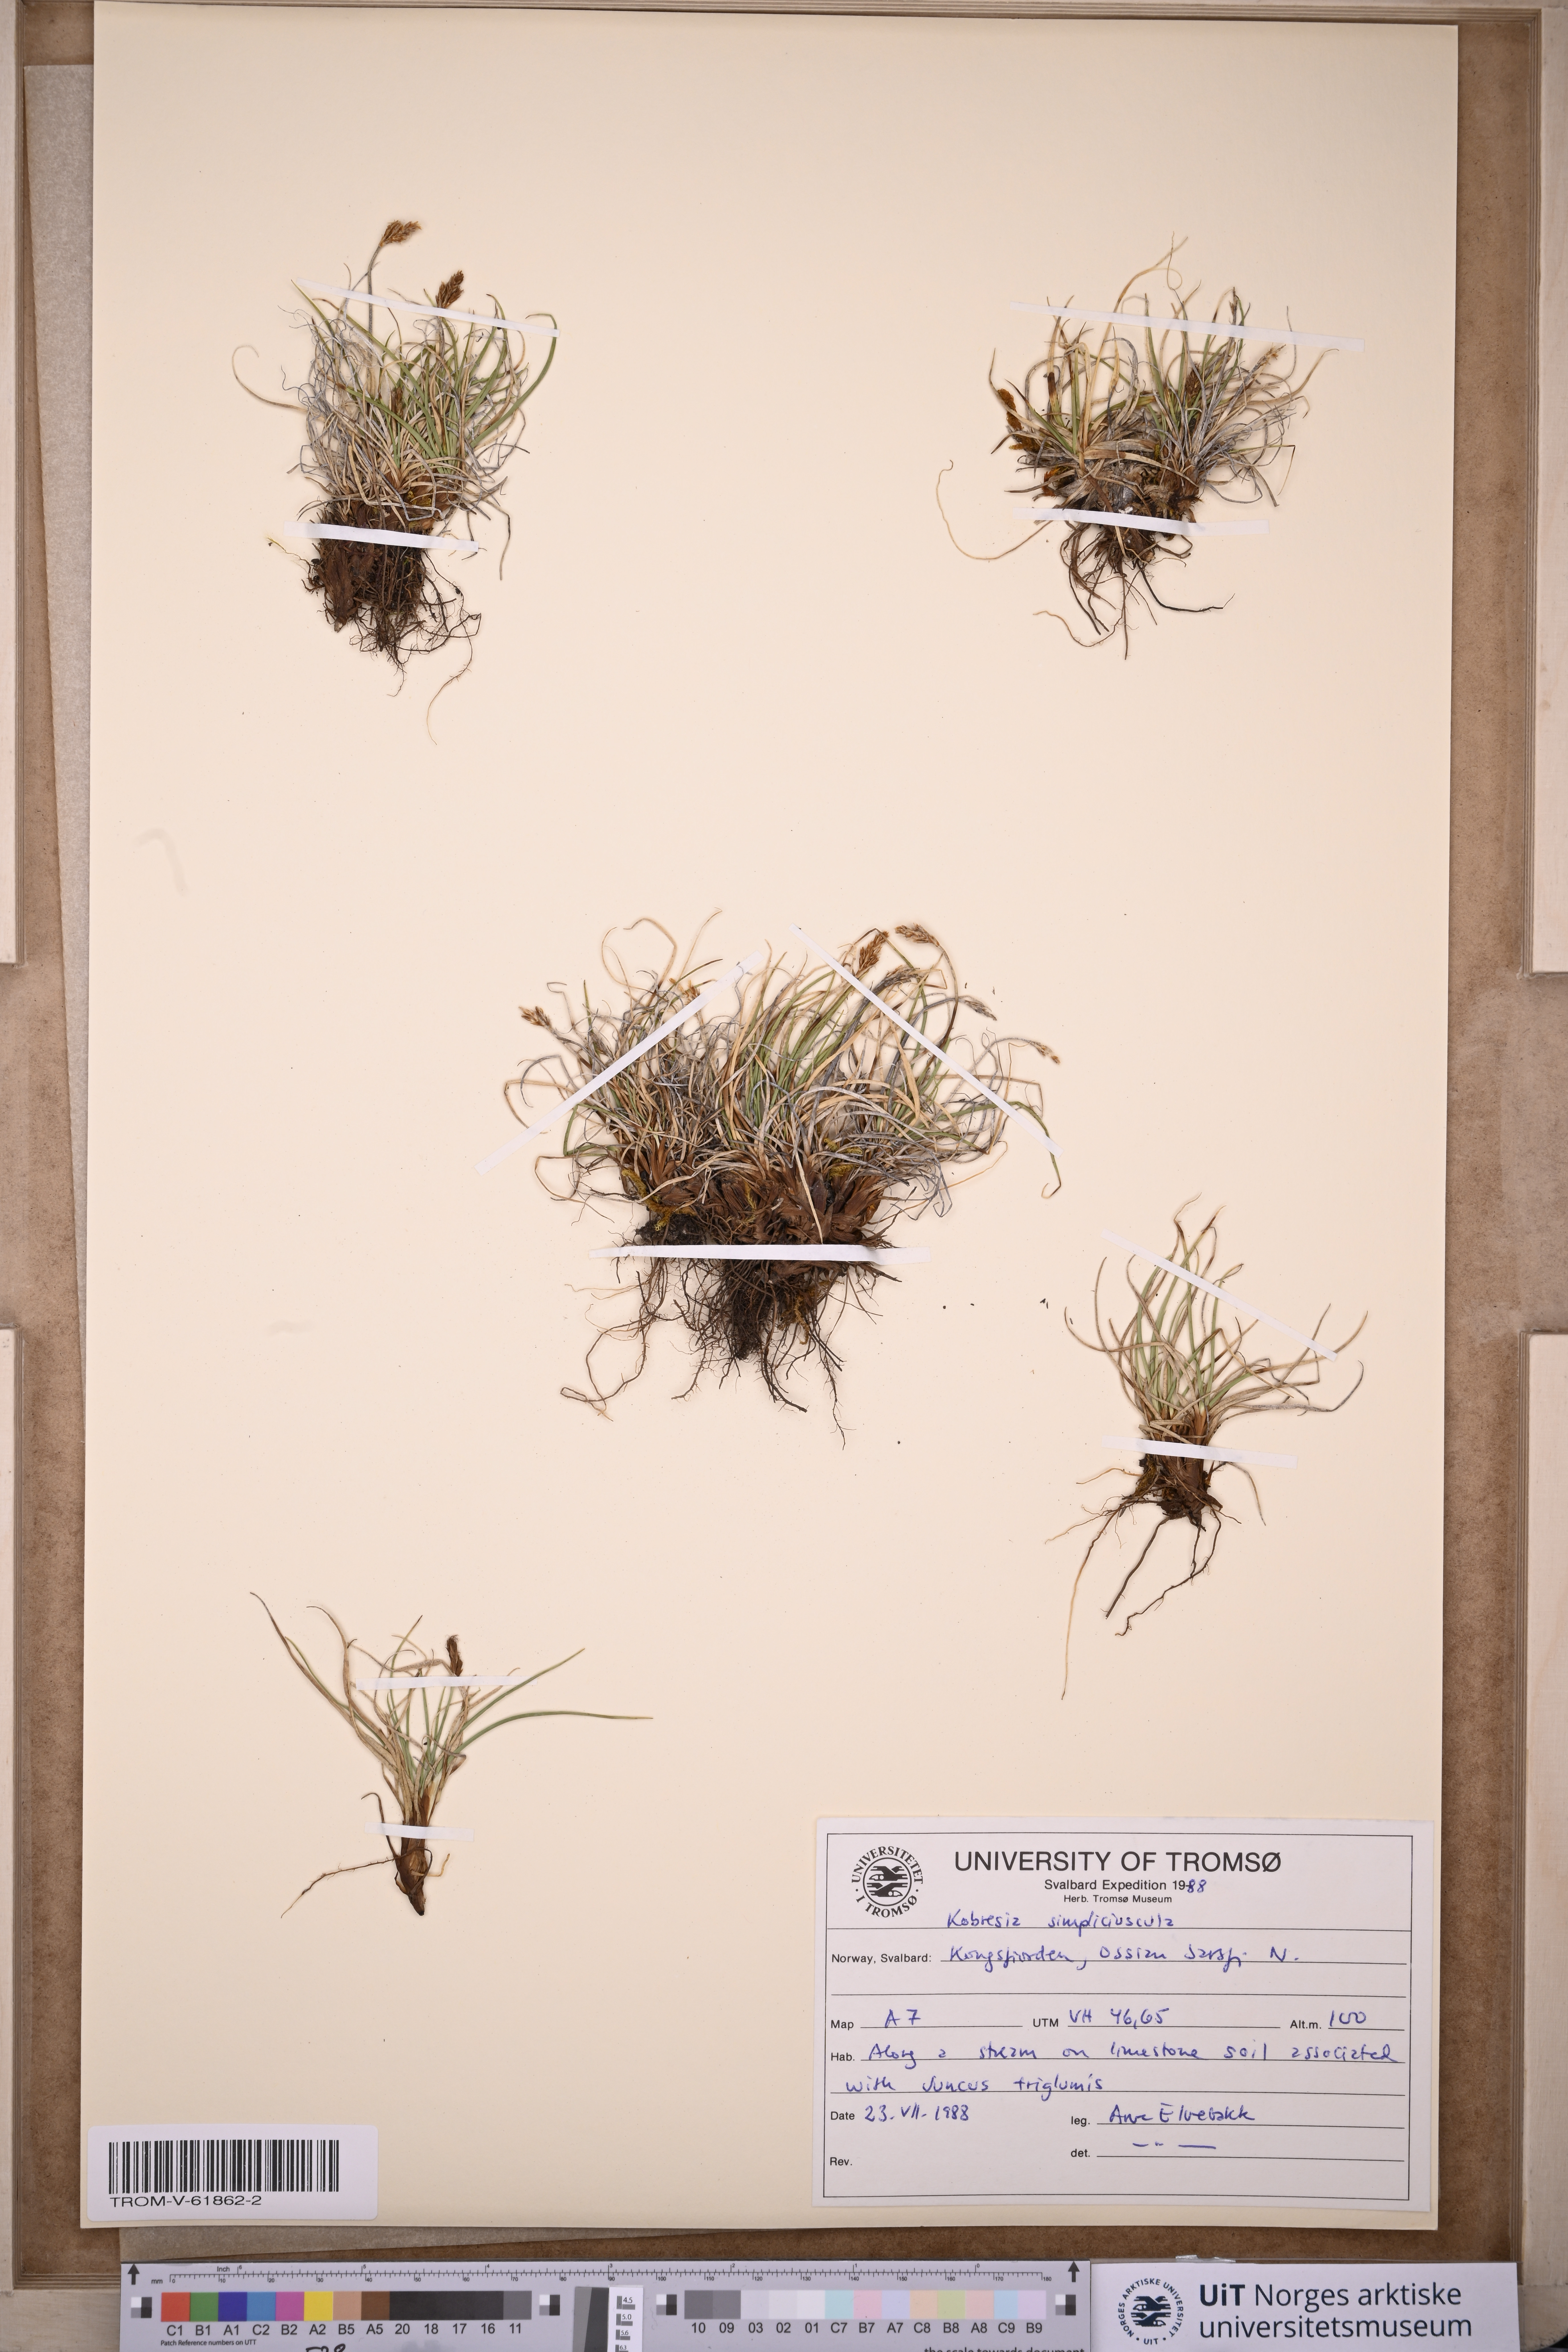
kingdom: Plantae
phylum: Tracheophyta
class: Liliopsida
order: Poales
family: Cyperaceae
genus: Carex
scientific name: Carex simpliciuscula
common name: Simple bog sedge
